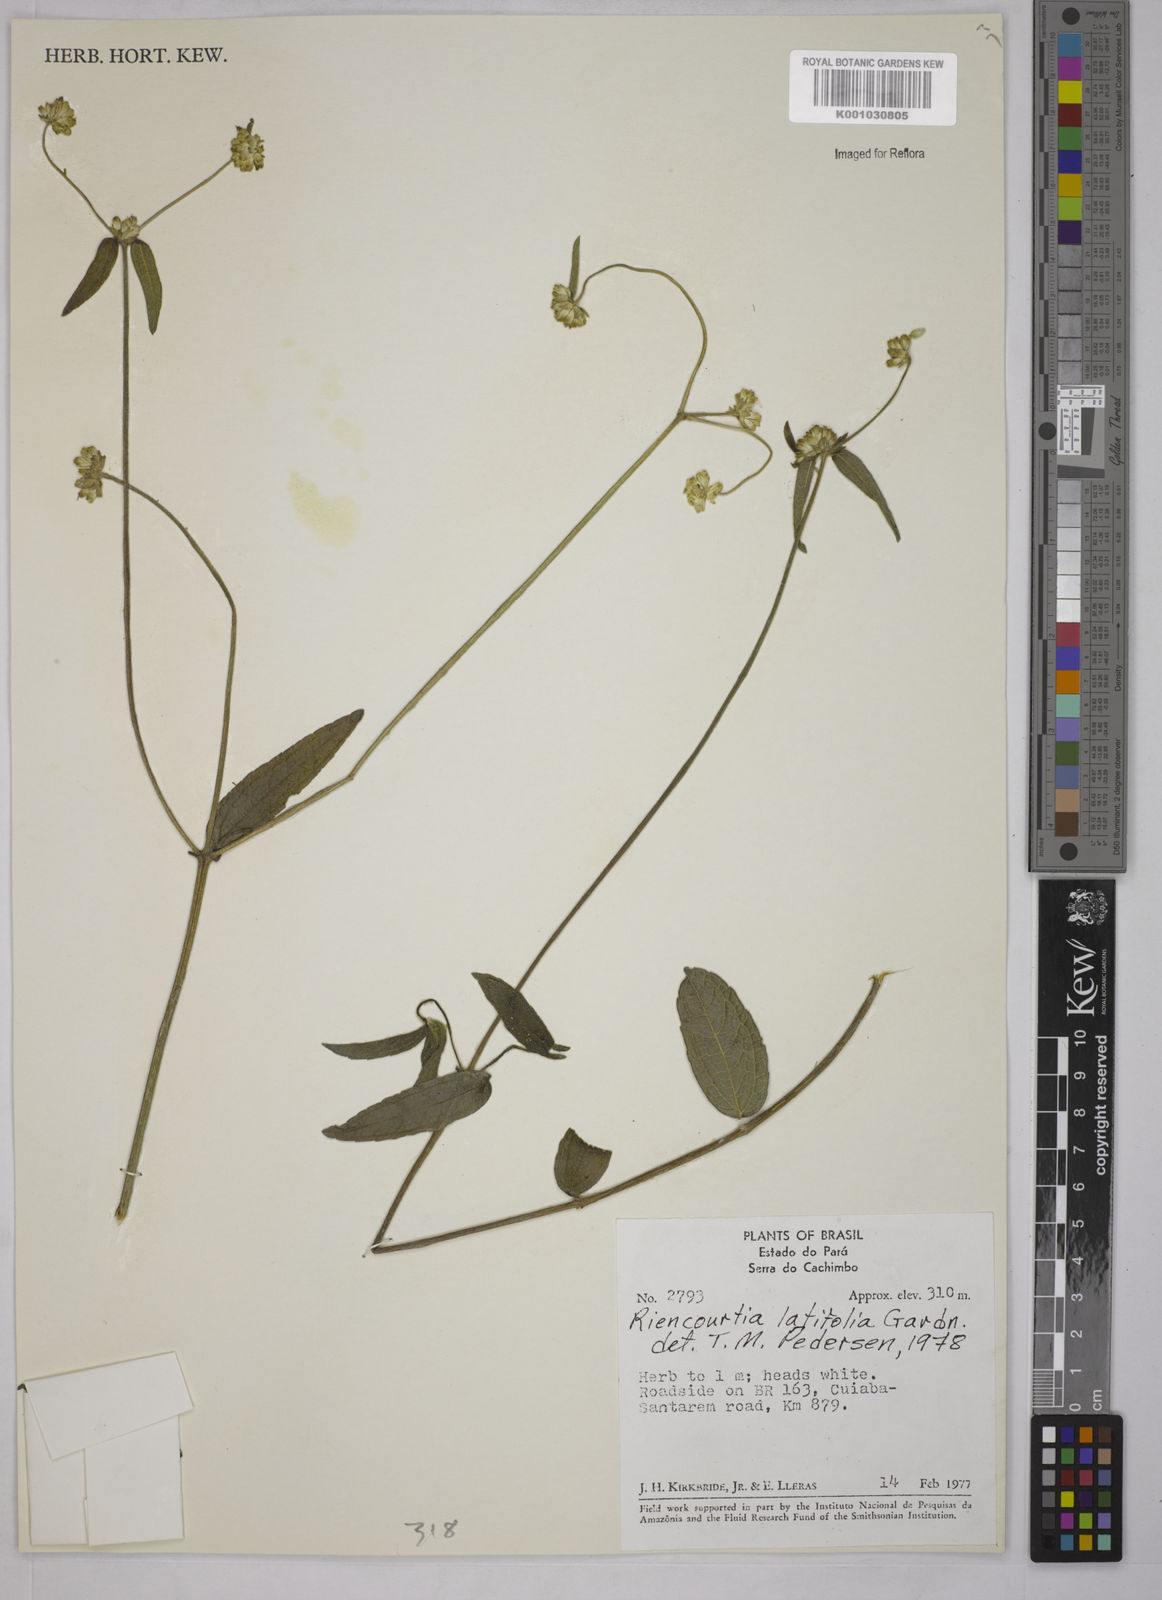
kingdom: Plantae
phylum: Tracheophyta
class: Magnoliopsida
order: Asterales
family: Asteraceae
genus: Riencourtia
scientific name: Riencourtia latifolia
